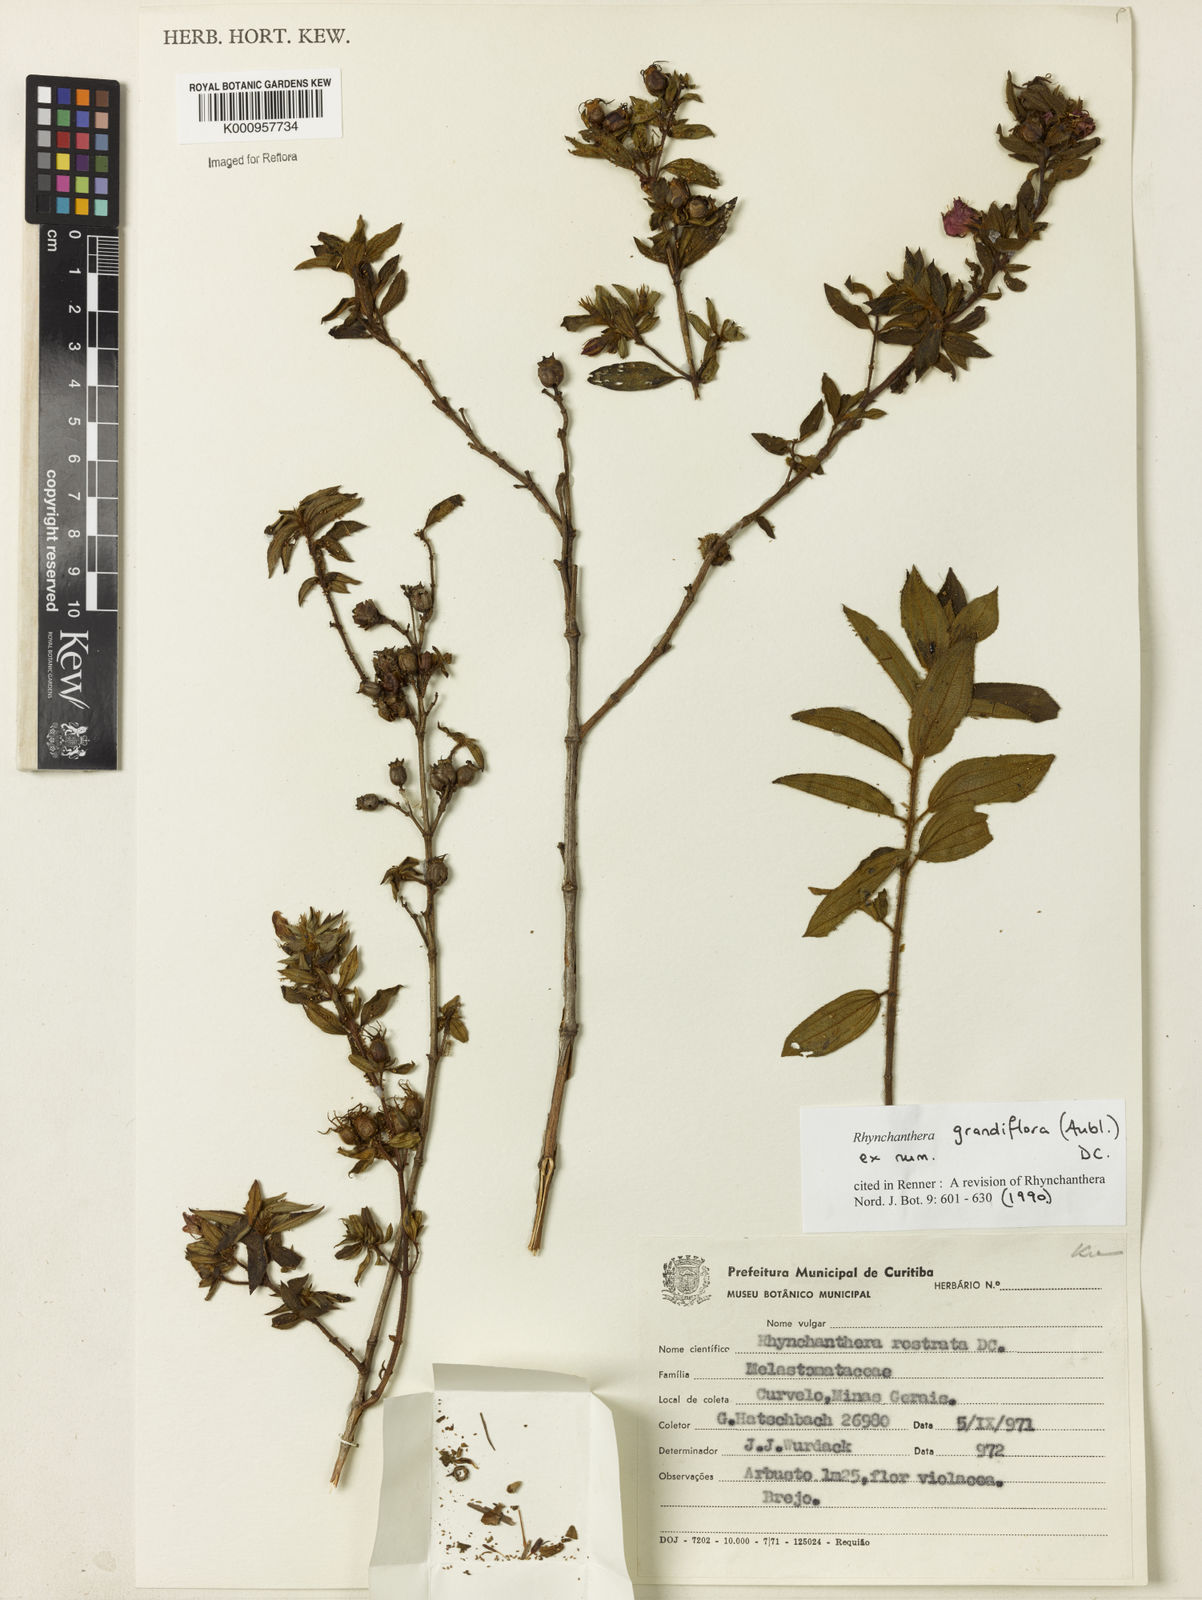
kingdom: Plantae
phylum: Tracheophyta
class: Magnoliopsida
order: Myrtales
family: Melastomataceae
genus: Rhynchanthera
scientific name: Rhynchanthera grandiflora
